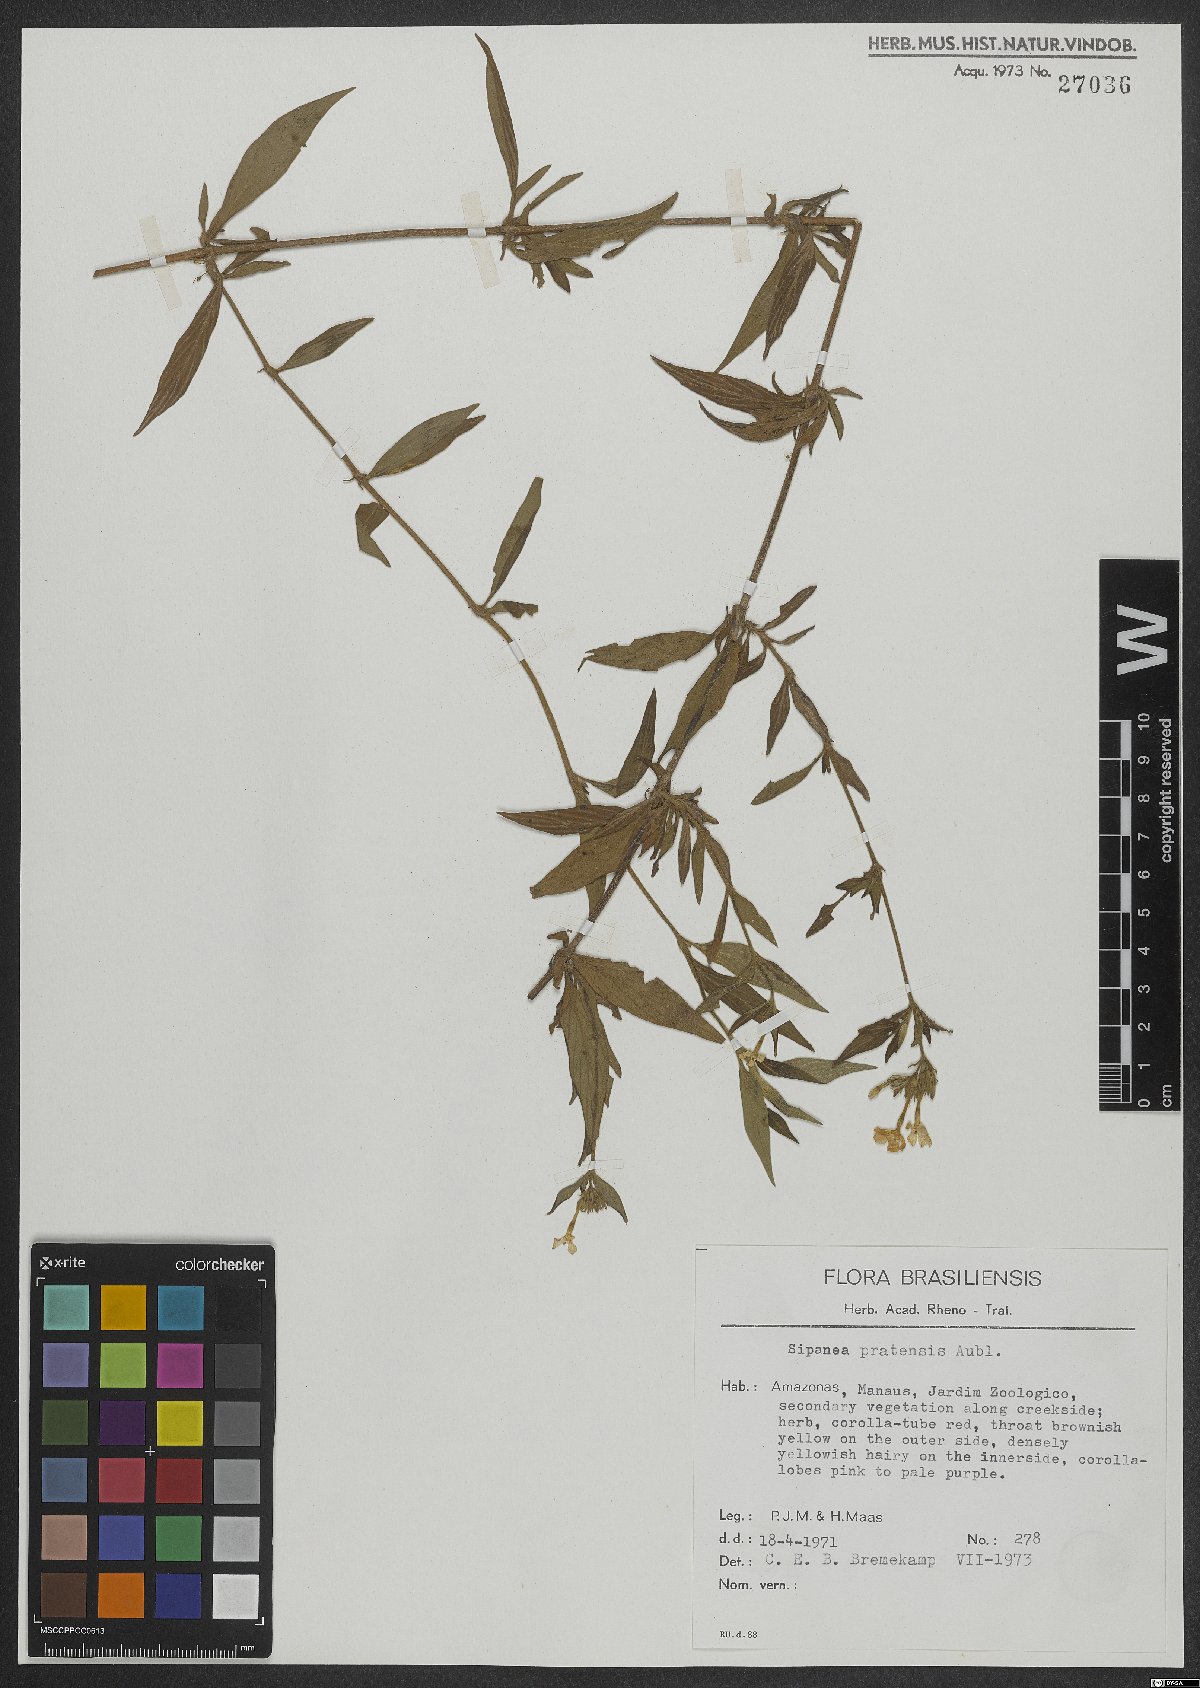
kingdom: Plantae
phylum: Tracheophyta
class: Magnoliopsida
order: Gentianales
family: Rubiaceae
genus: Sipanea
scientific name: Sipanea pratensis
